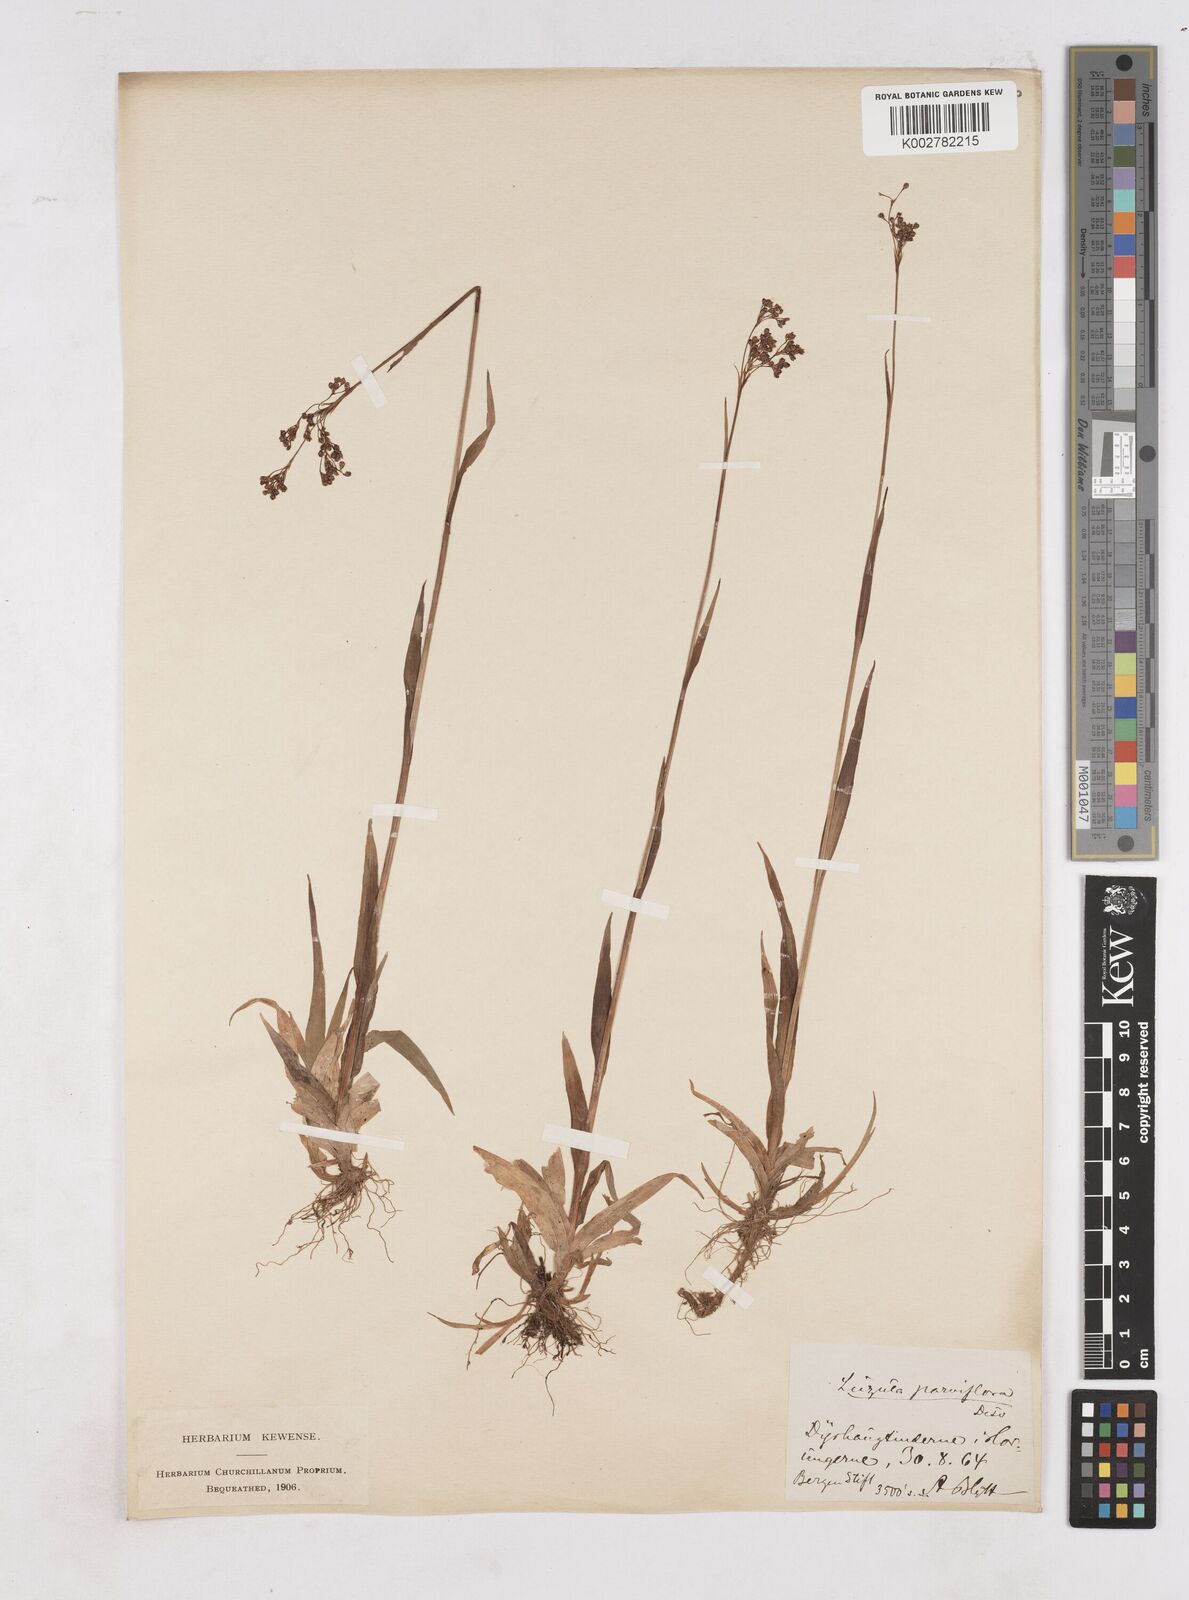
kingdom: Plantae
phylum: Tracheophyta
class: Liliopsida
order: Poales
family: Juncaceae
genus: Luzula
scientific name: Luzula parviflora
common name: Millet woodrush
